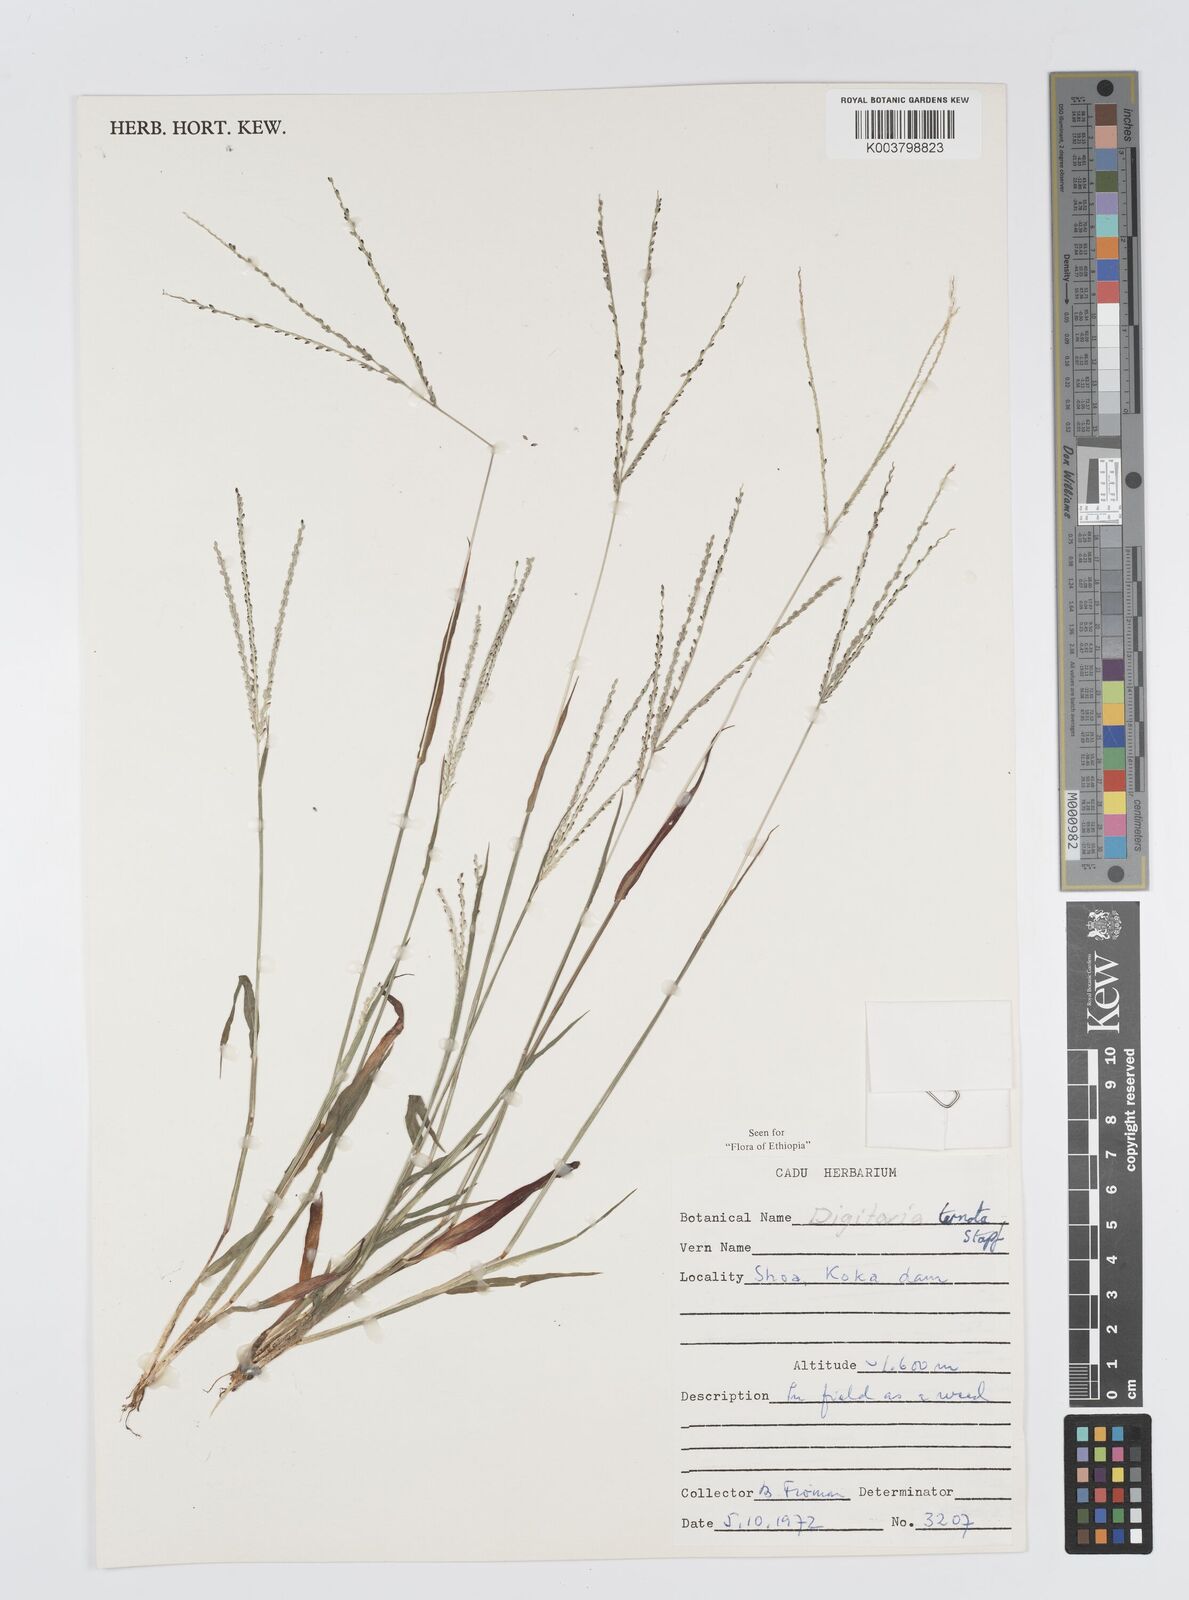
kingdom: Plantae
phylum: Tracheophyta
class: Liliopsida
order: Poales
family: Poaceae
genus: Digitaria
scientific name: Digitaria ternata
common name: Blackseed crabgrass
